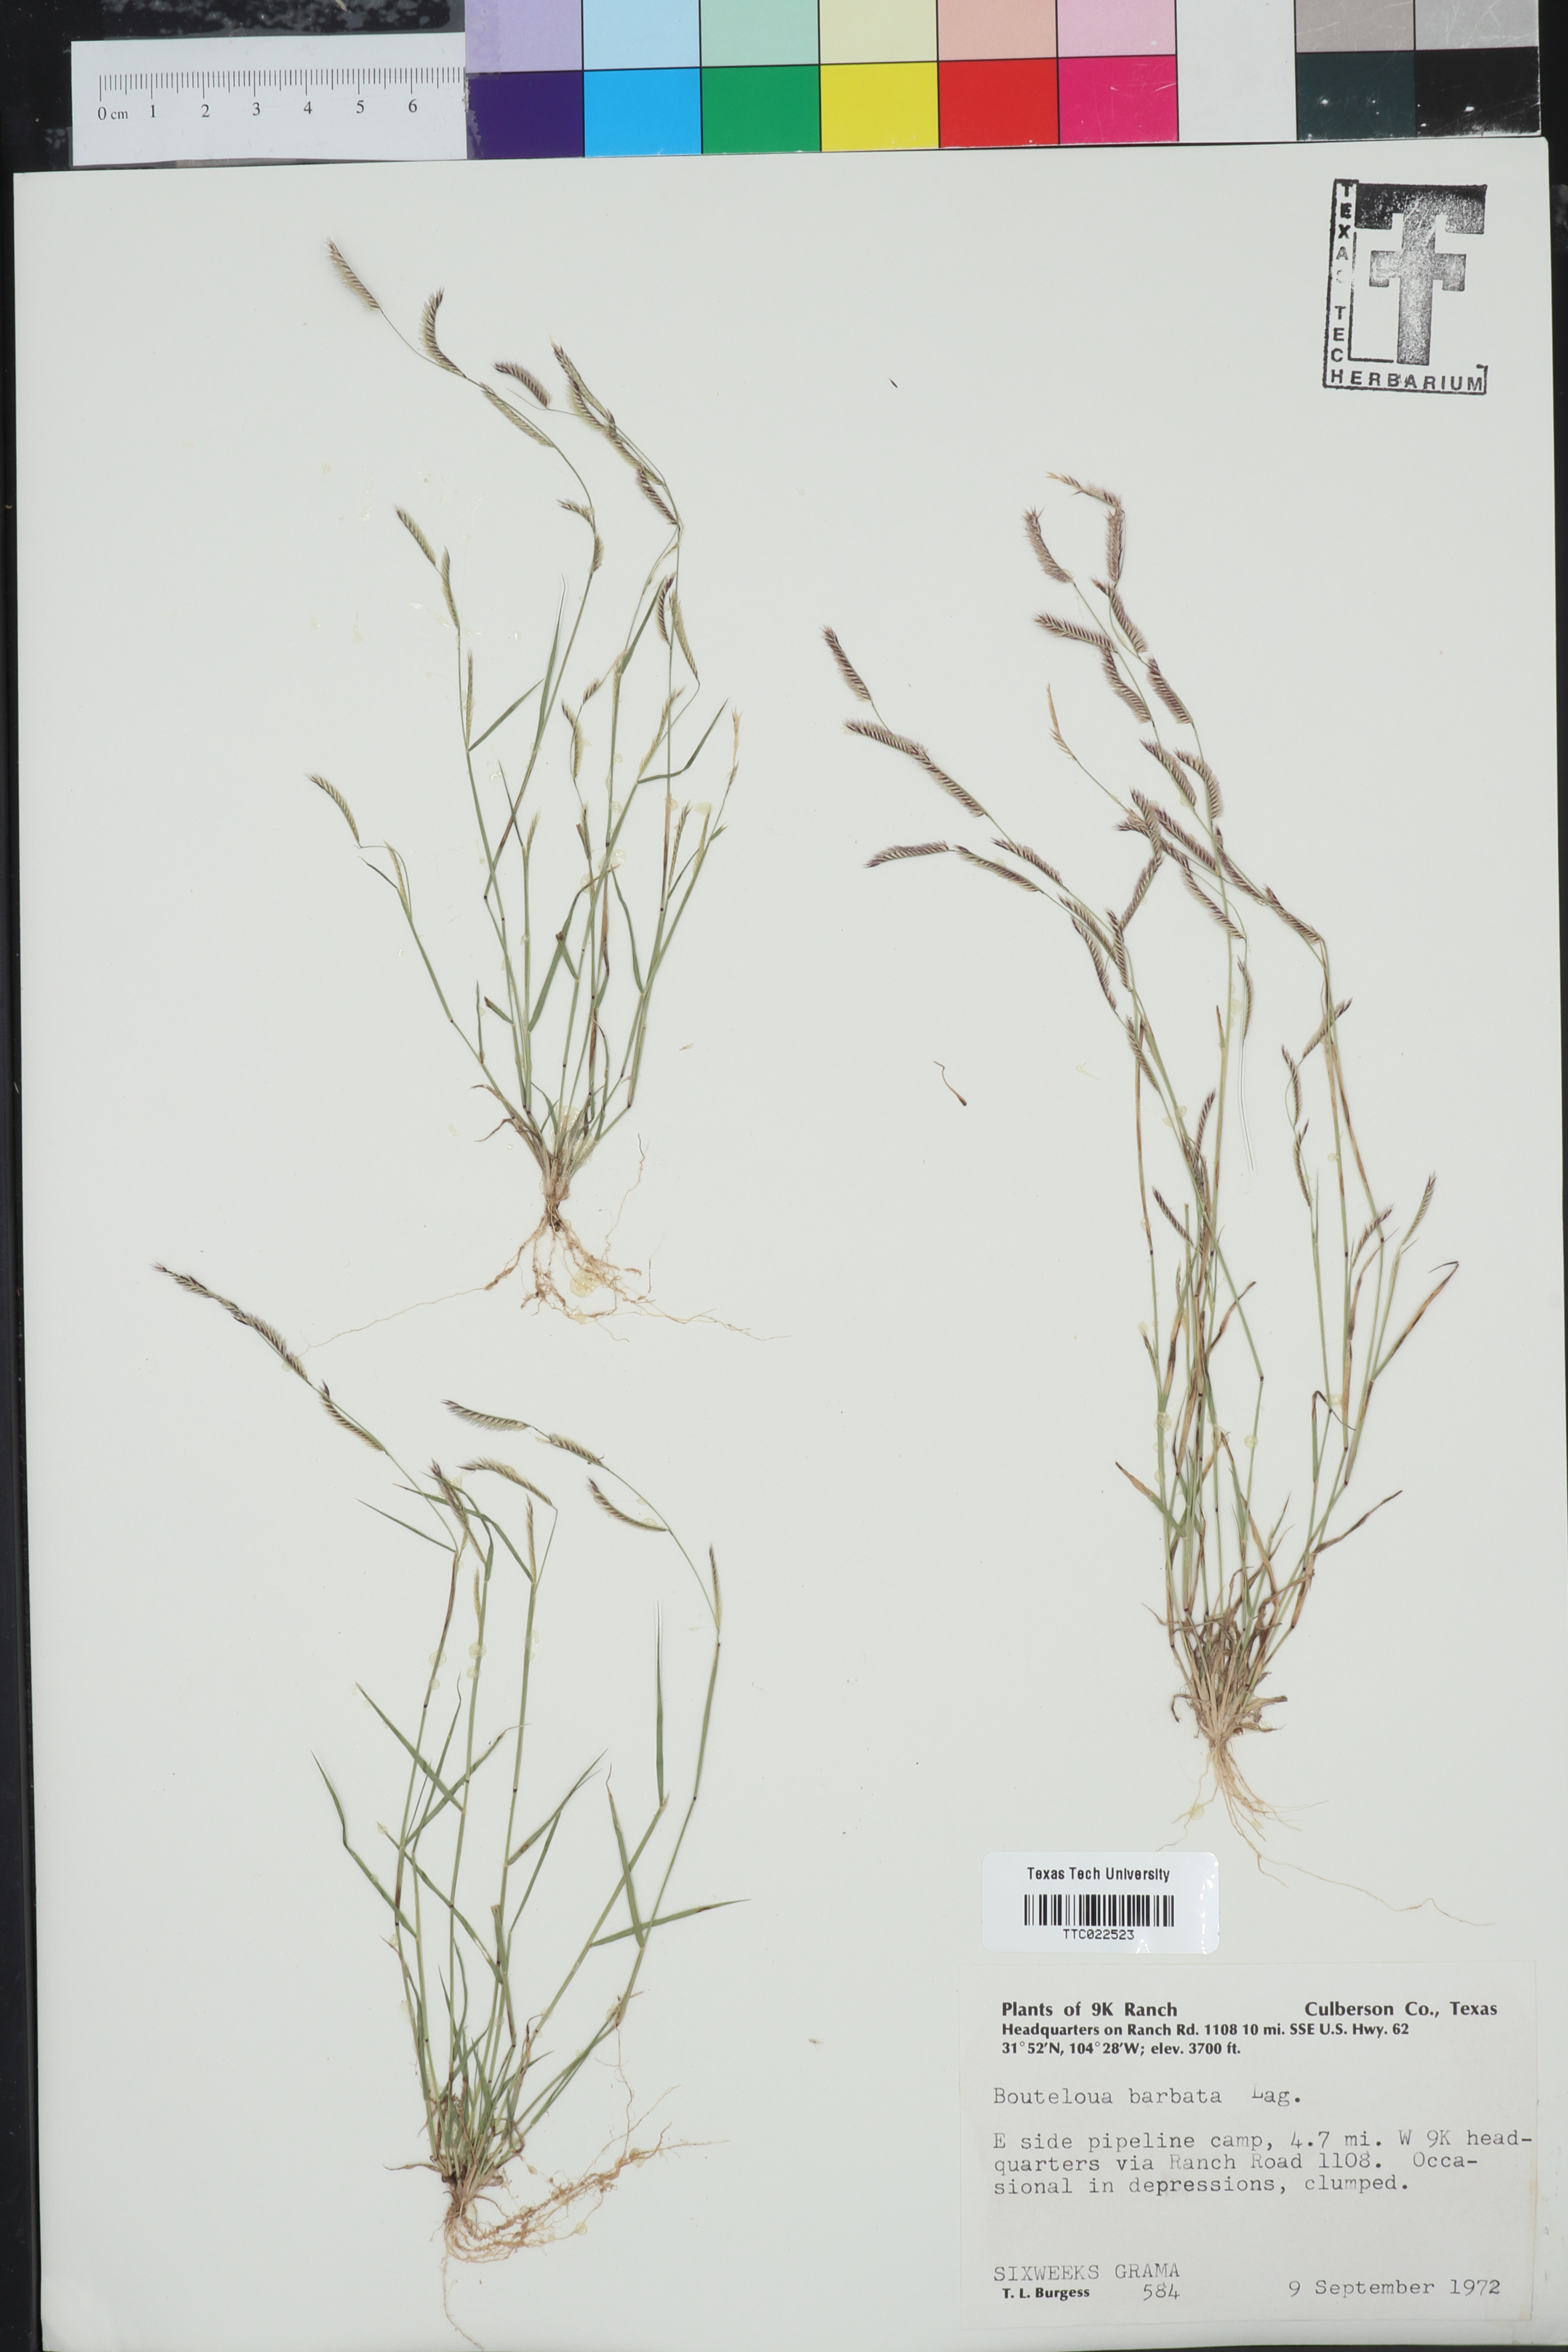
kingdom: Plantae
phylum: Tracheophyta
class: Liliopsida
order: Poales
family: Poaceae
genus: Bouteloua
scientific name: Bouteloua barbata
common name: Six-weeks grama
